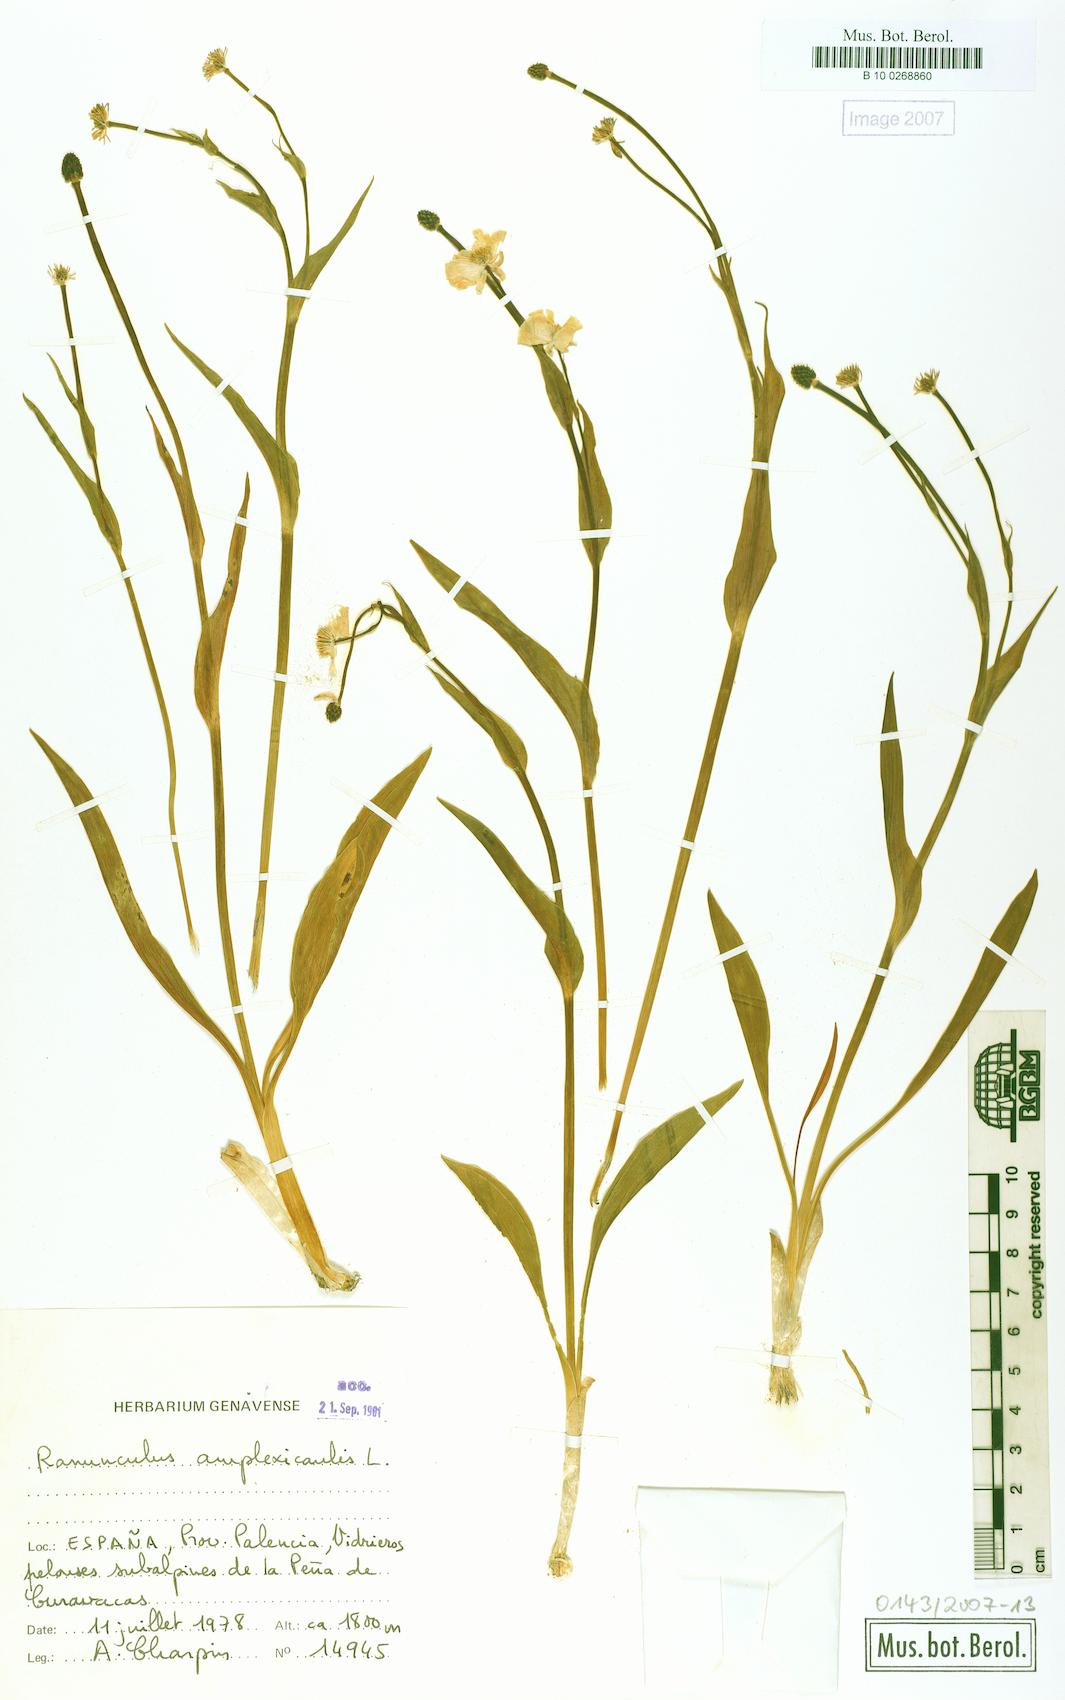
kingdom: Plantae
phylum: Tracheophyta
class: Magnoliopsida
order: Ranunculales
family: Ranunculaceae
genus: Ranunculus
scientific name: Ranunculus amplexicaulis
